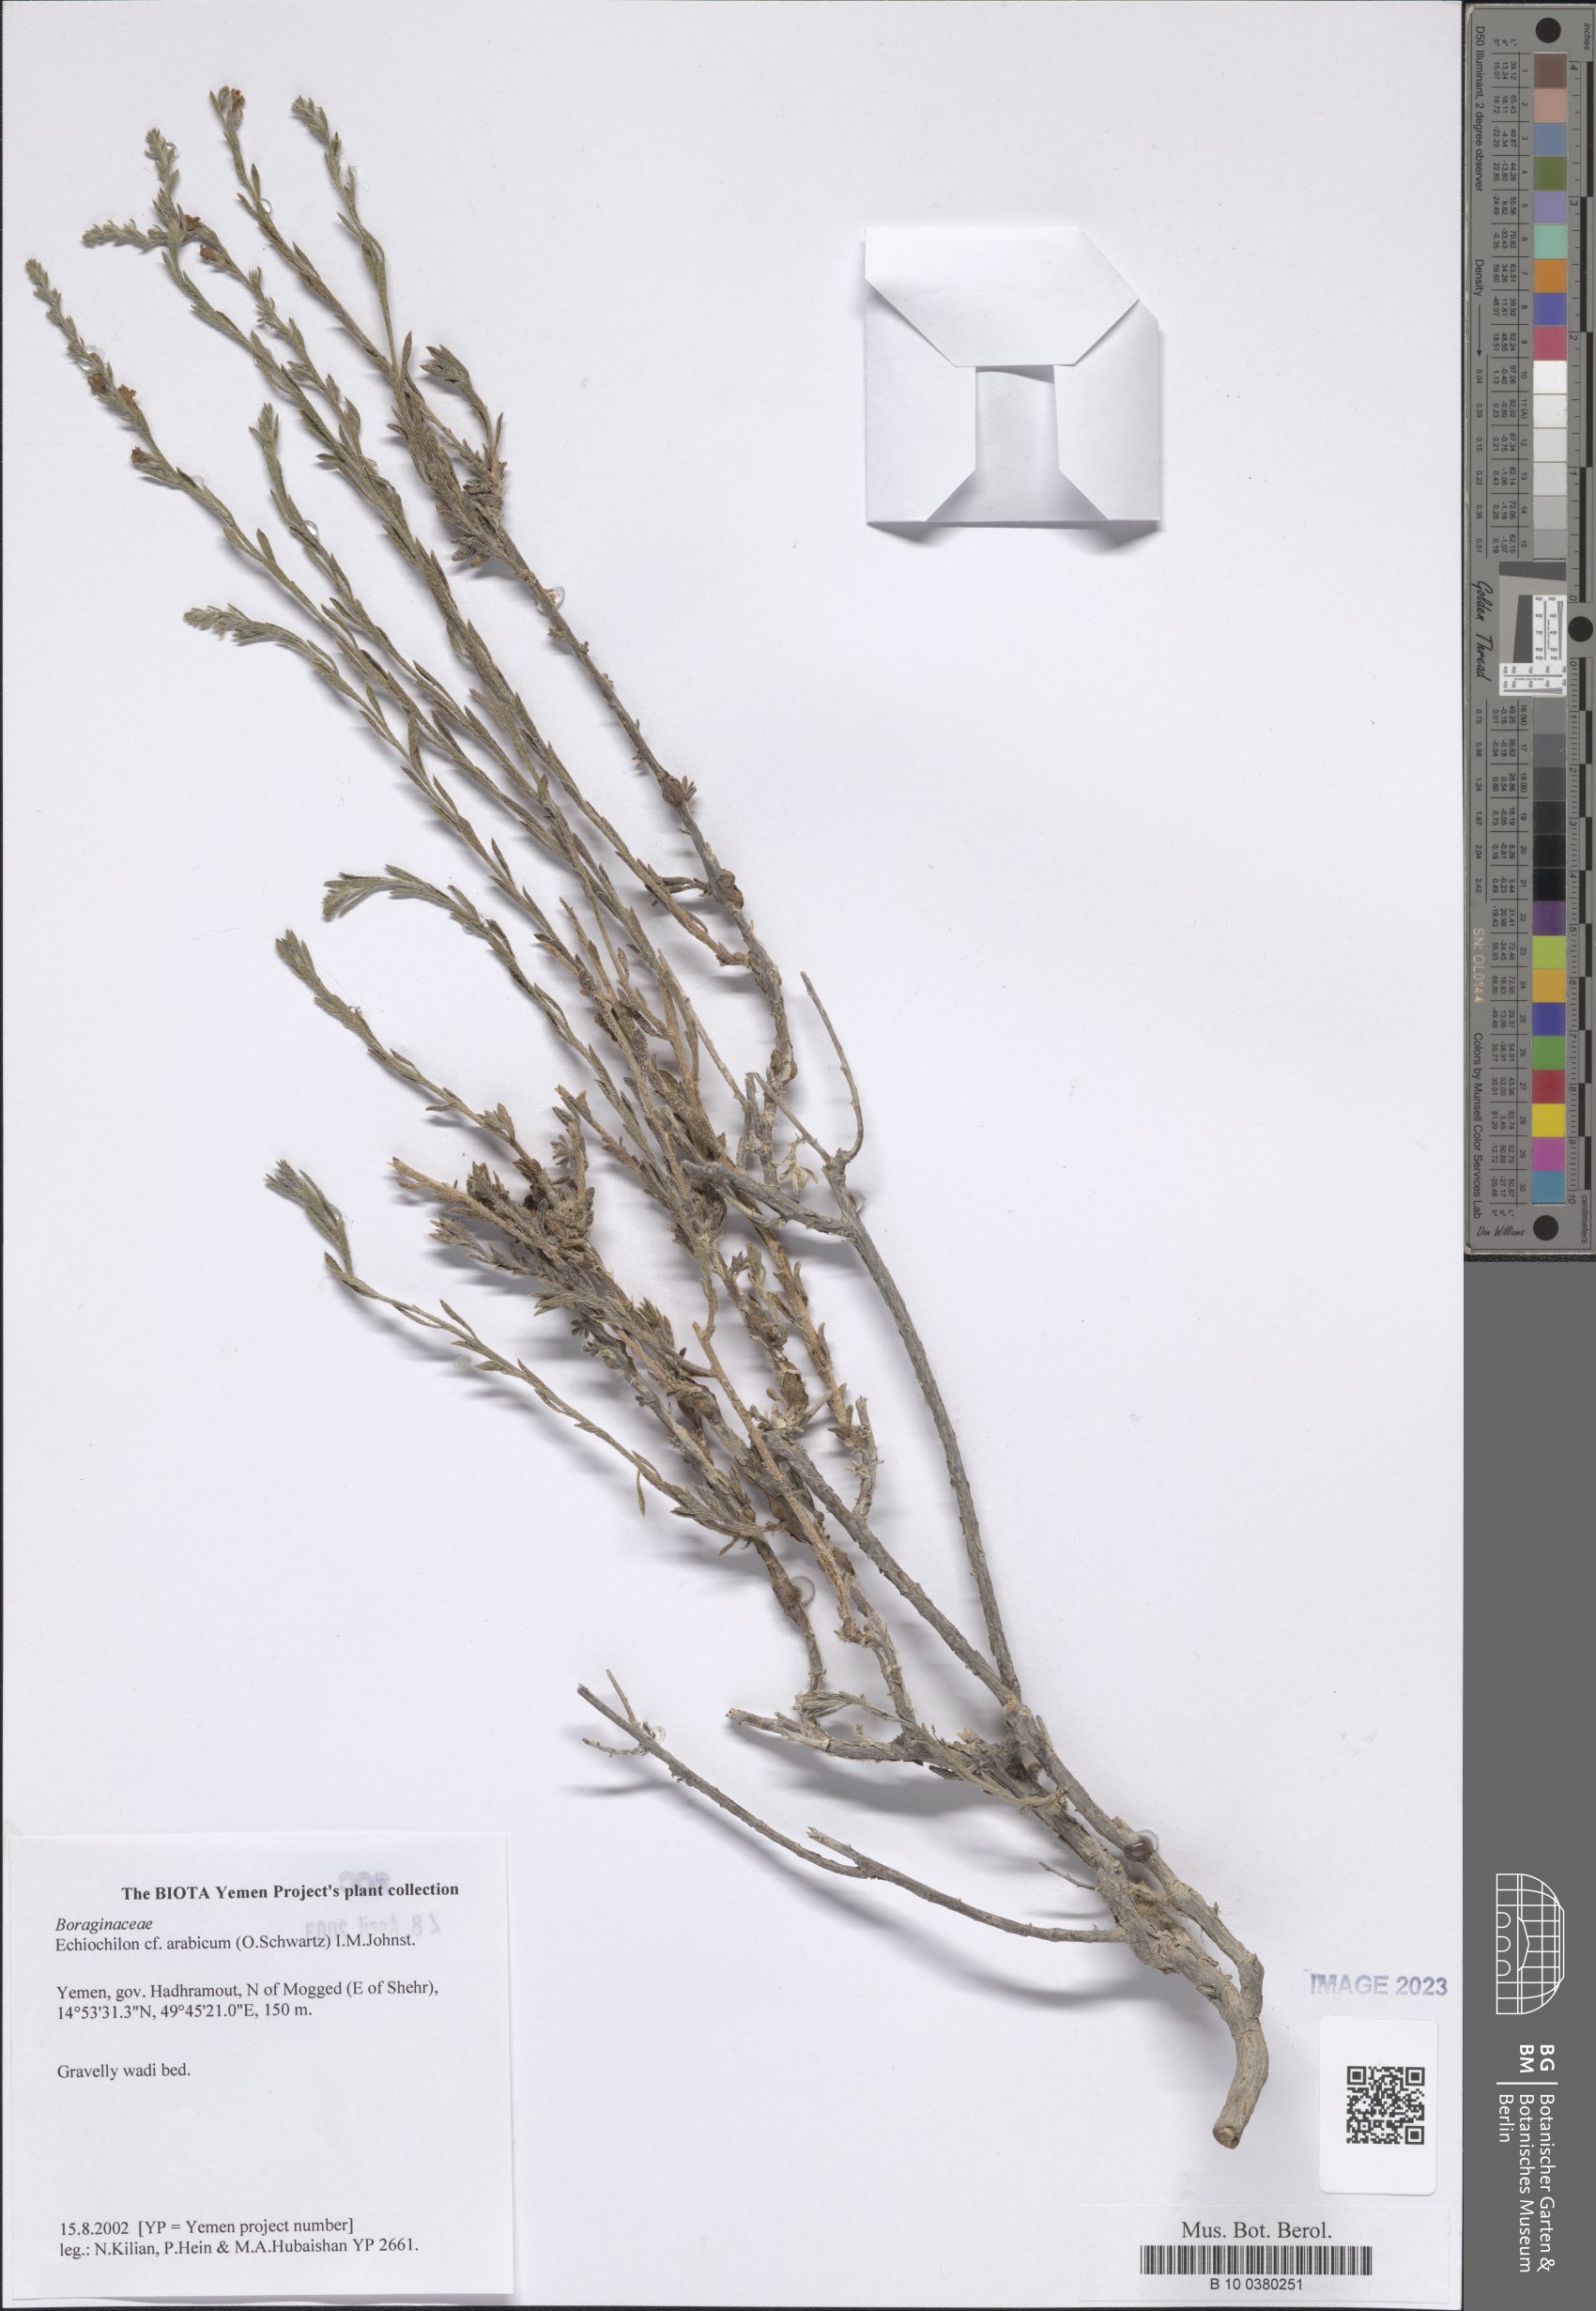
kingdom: Plantae
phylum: Tracheophyta
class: Magnoliopsida
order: Boraginales
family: Boraginaceae
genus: Echiochilon
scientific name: Echiochilon arabicum
